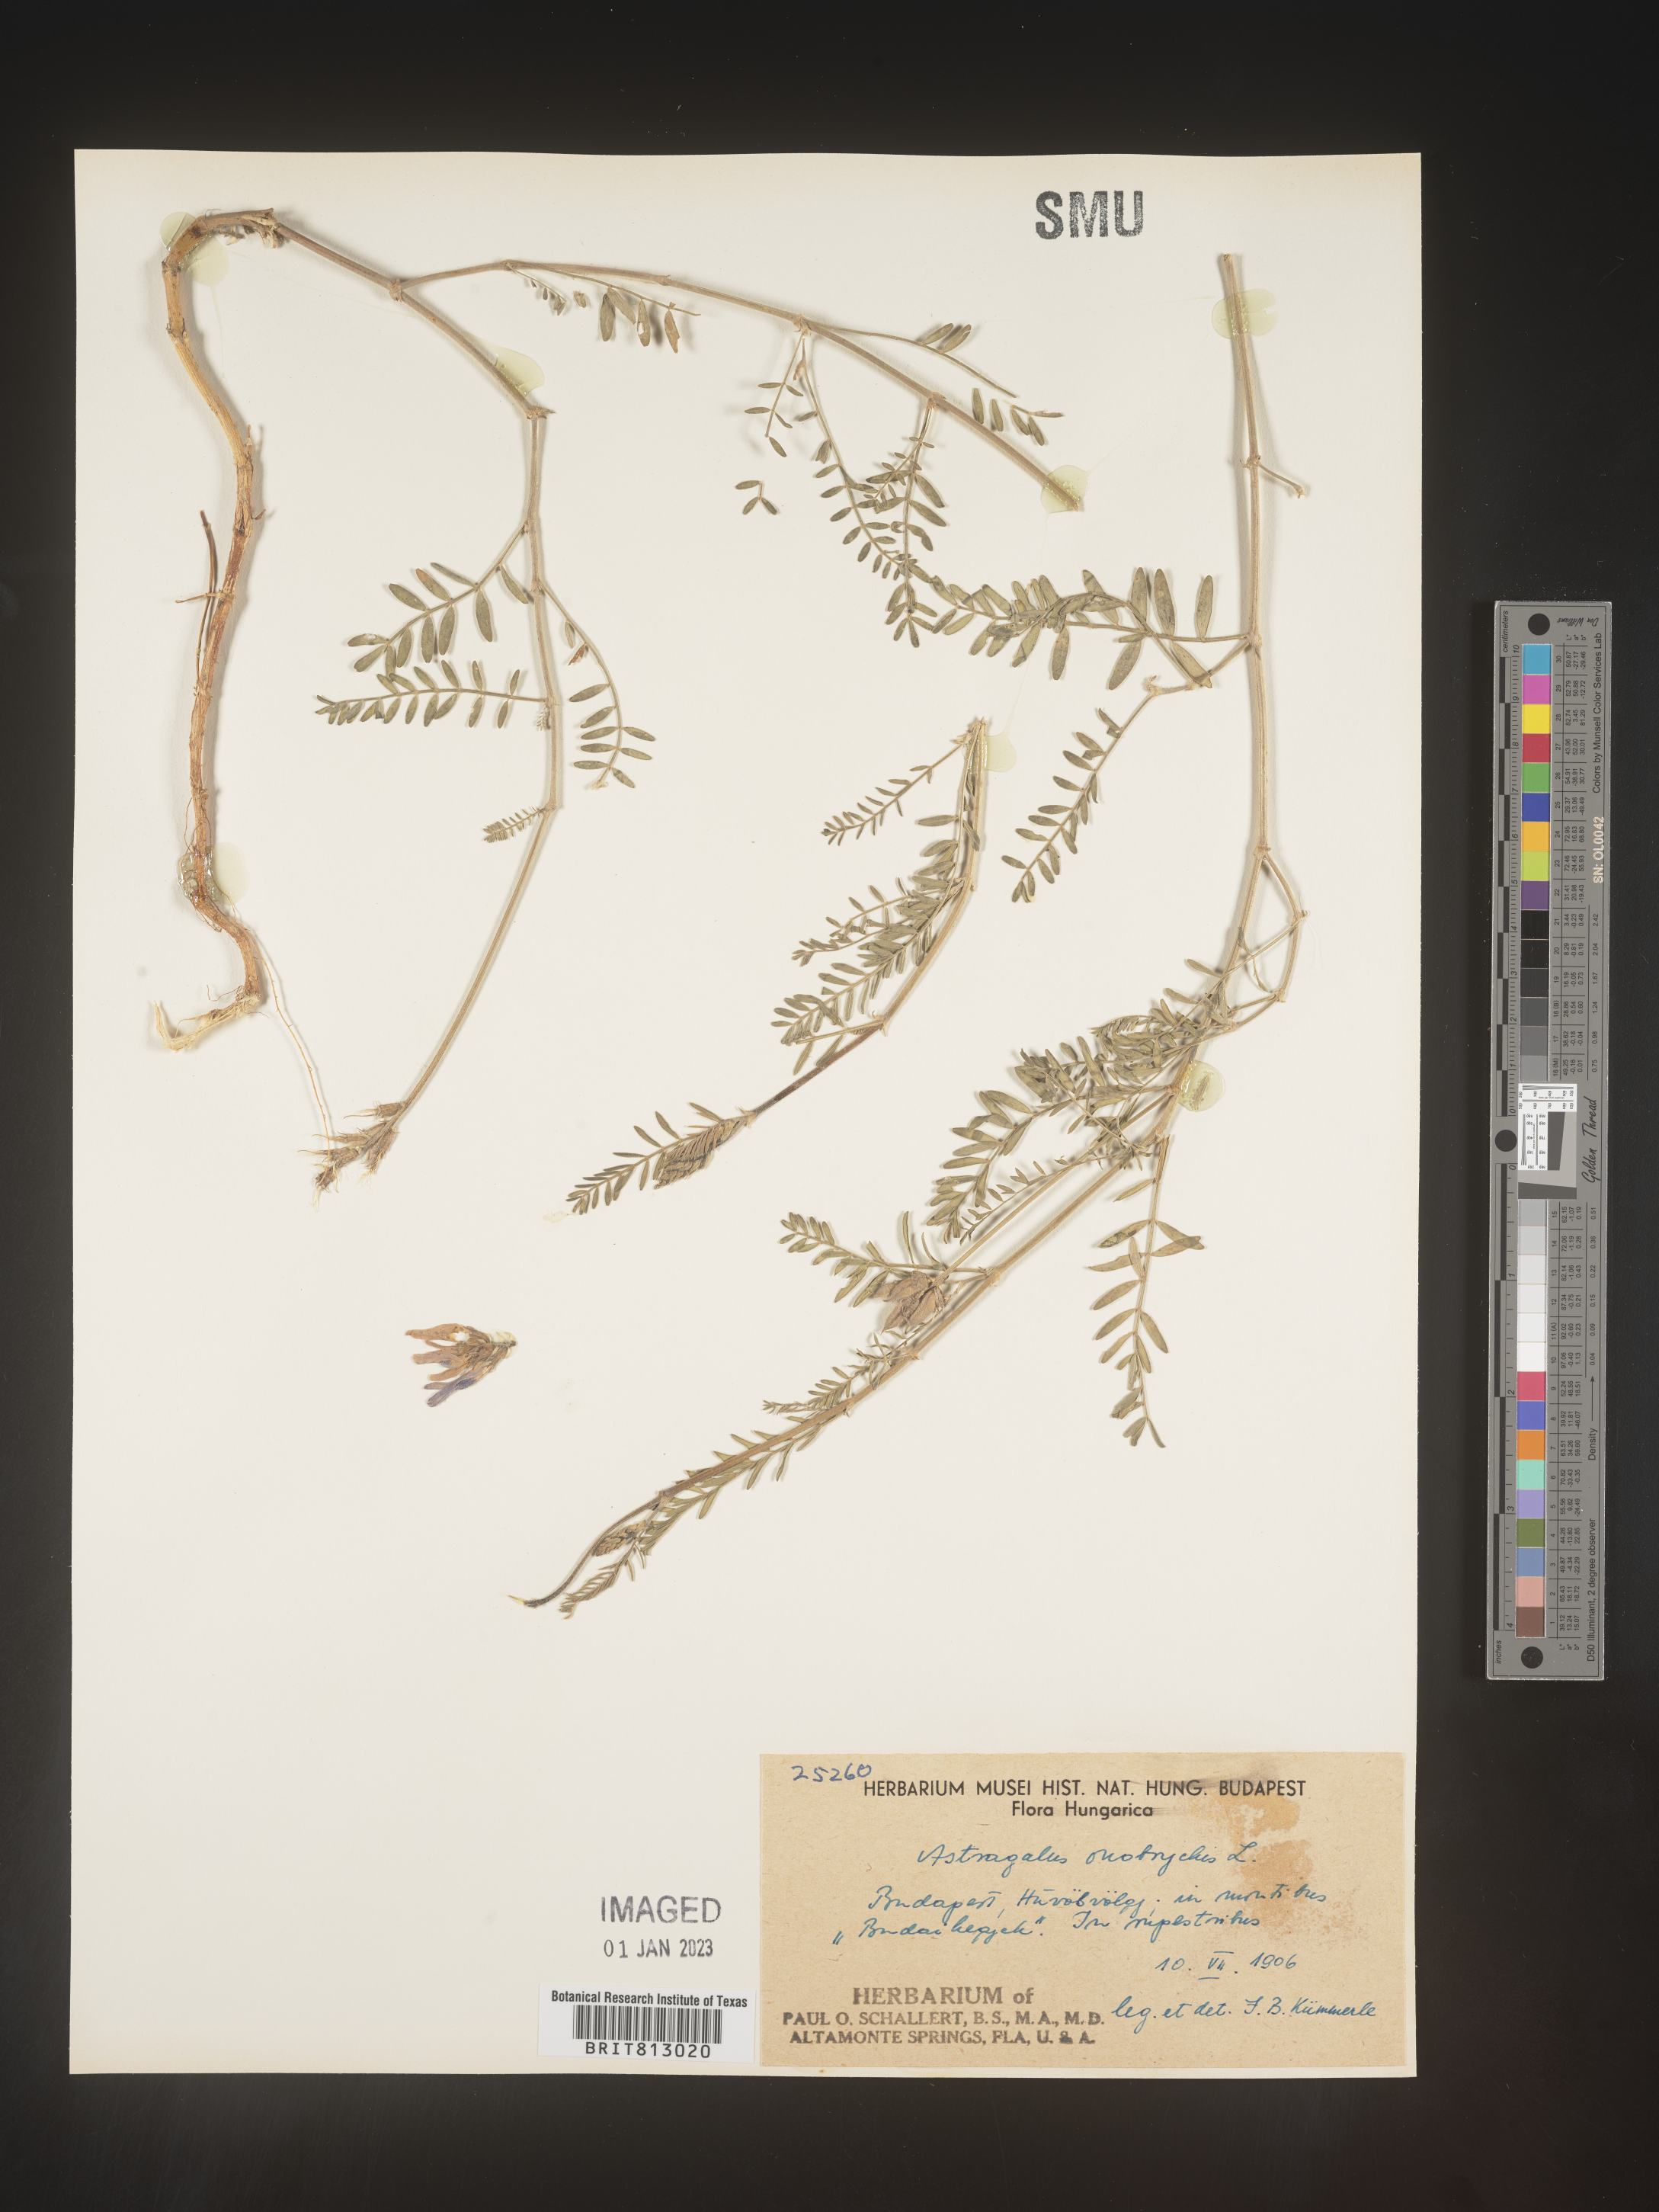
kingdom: Plantae
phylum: Tracheophyta
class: Magnoliopsida
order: Fabales
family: Fabaceae
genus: Astragalus
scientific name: Astragalus
